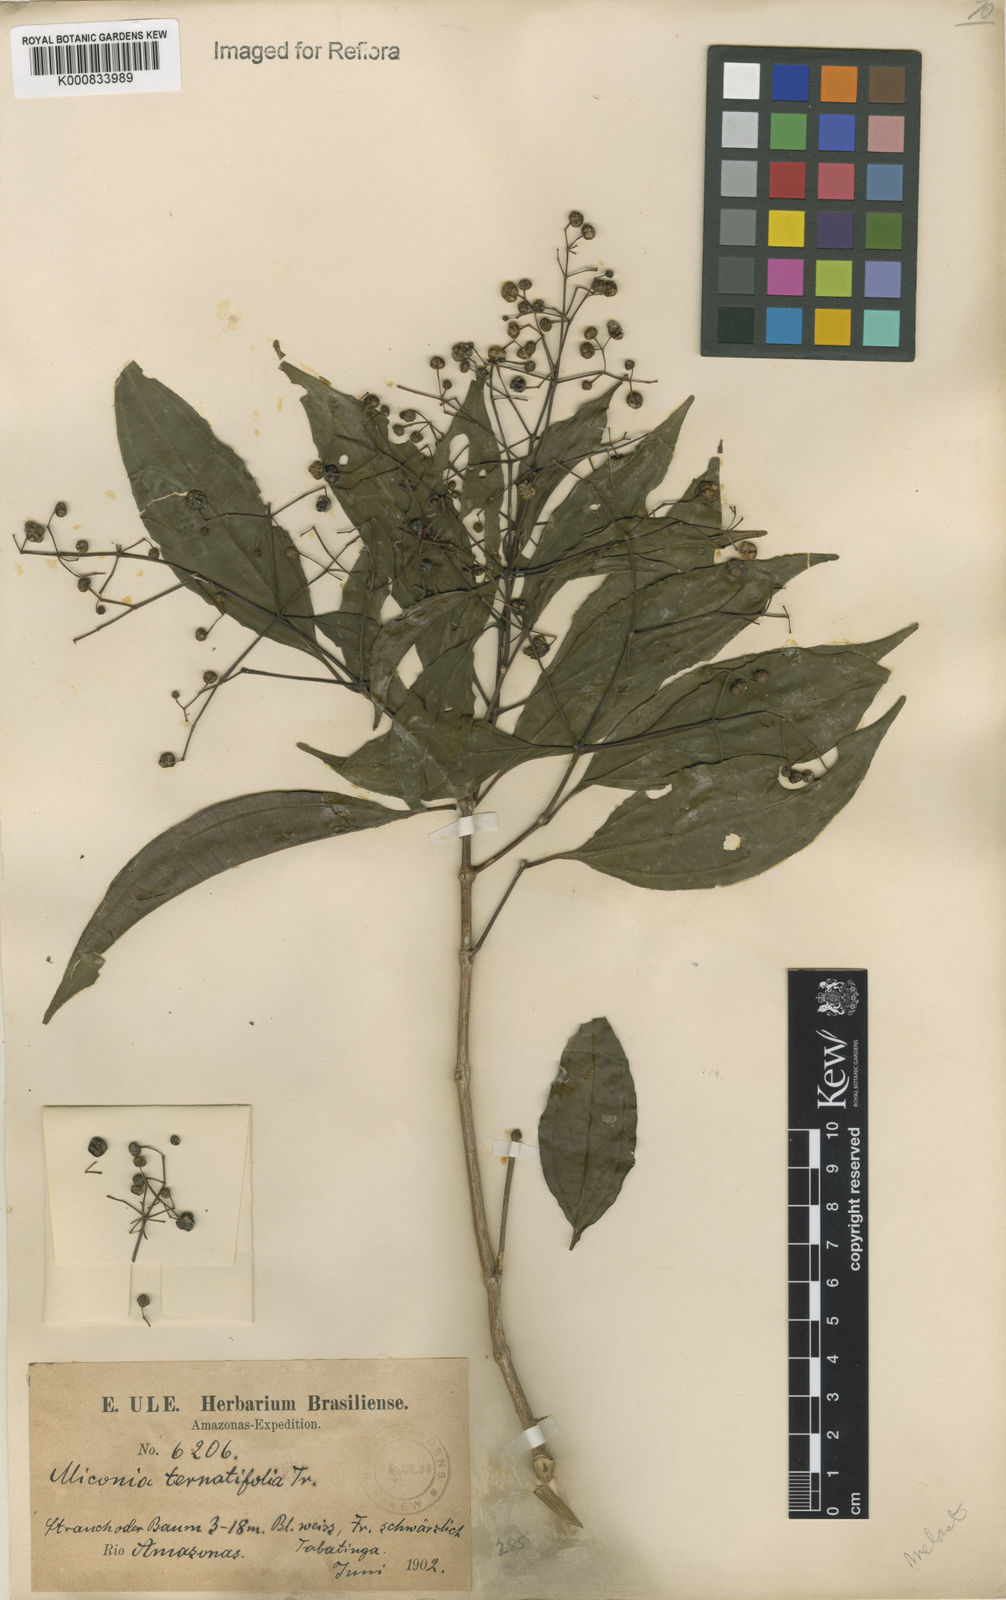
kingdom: Plantae
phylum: Tracheophyta
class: Magnoliopsida
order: Myrtales
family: Melastomataceae
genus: Miconia
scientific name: Miconia ternatifolia
